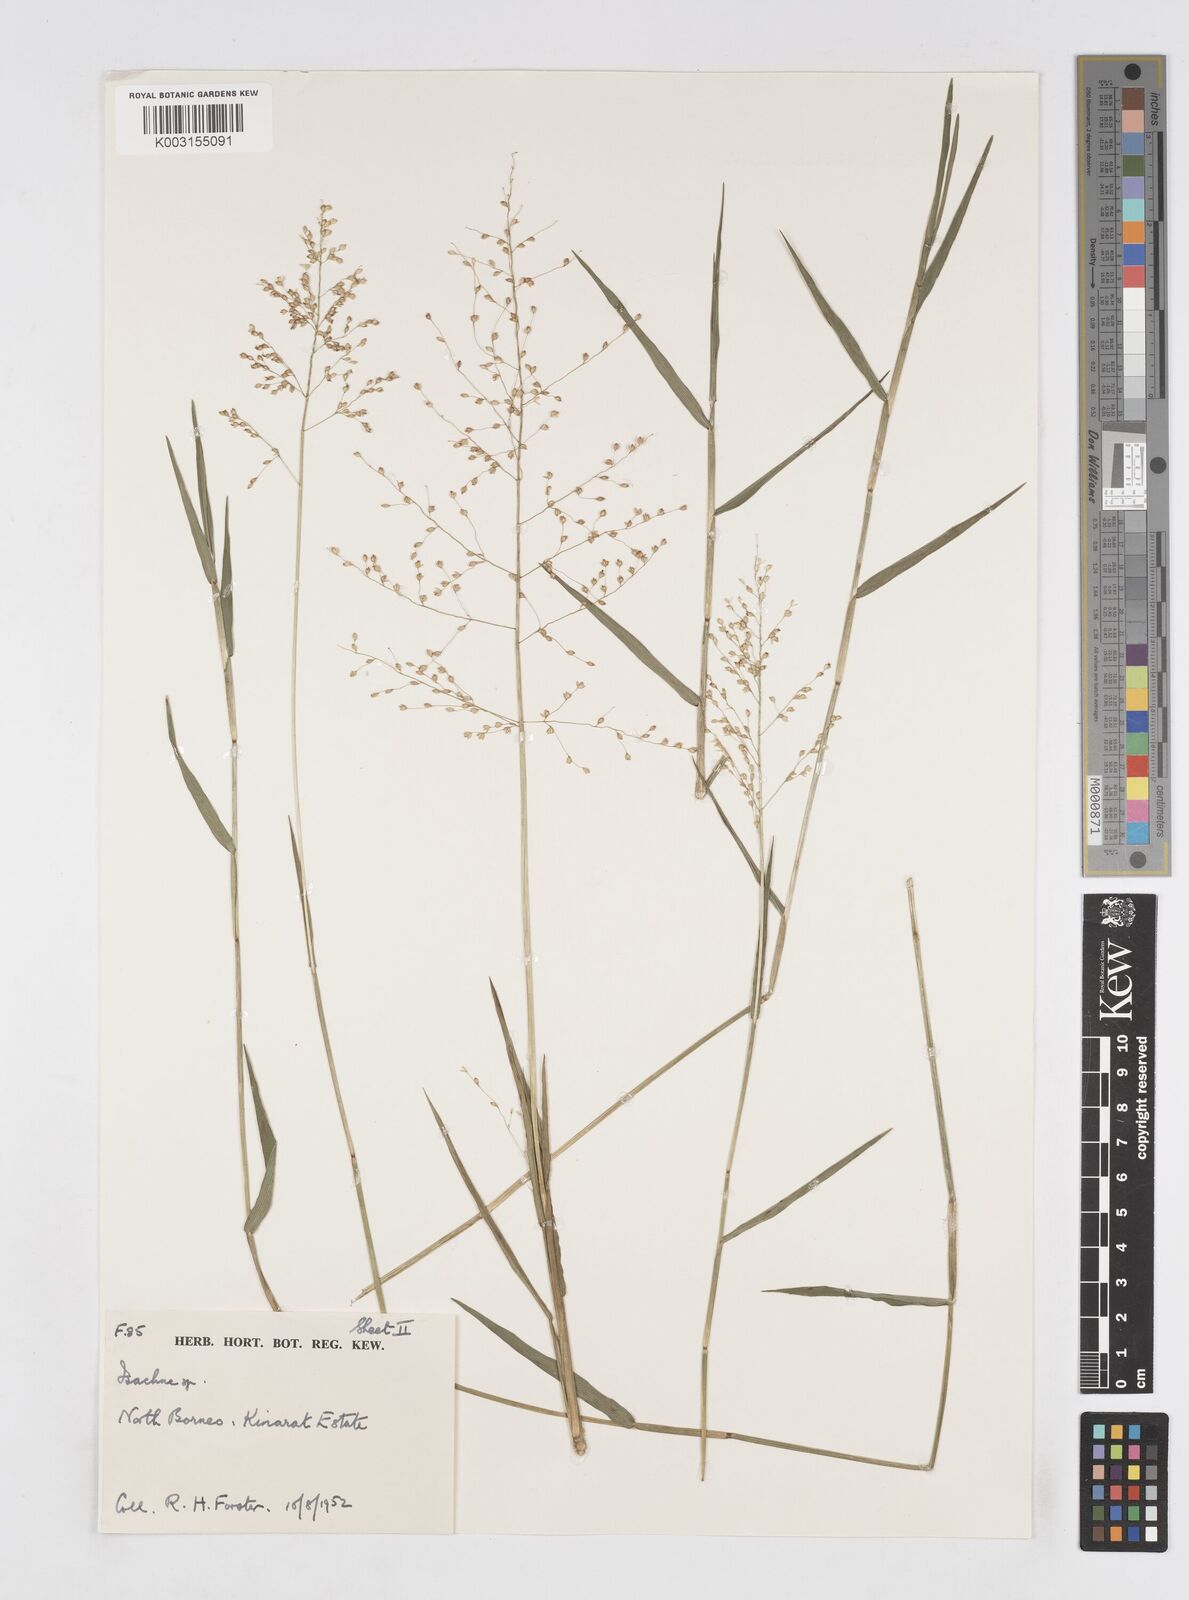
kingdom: Plantae
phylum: Tracheophyta
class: Liliopsida
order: Poales
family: Poaceae
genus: Isachne
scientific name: Isachne
